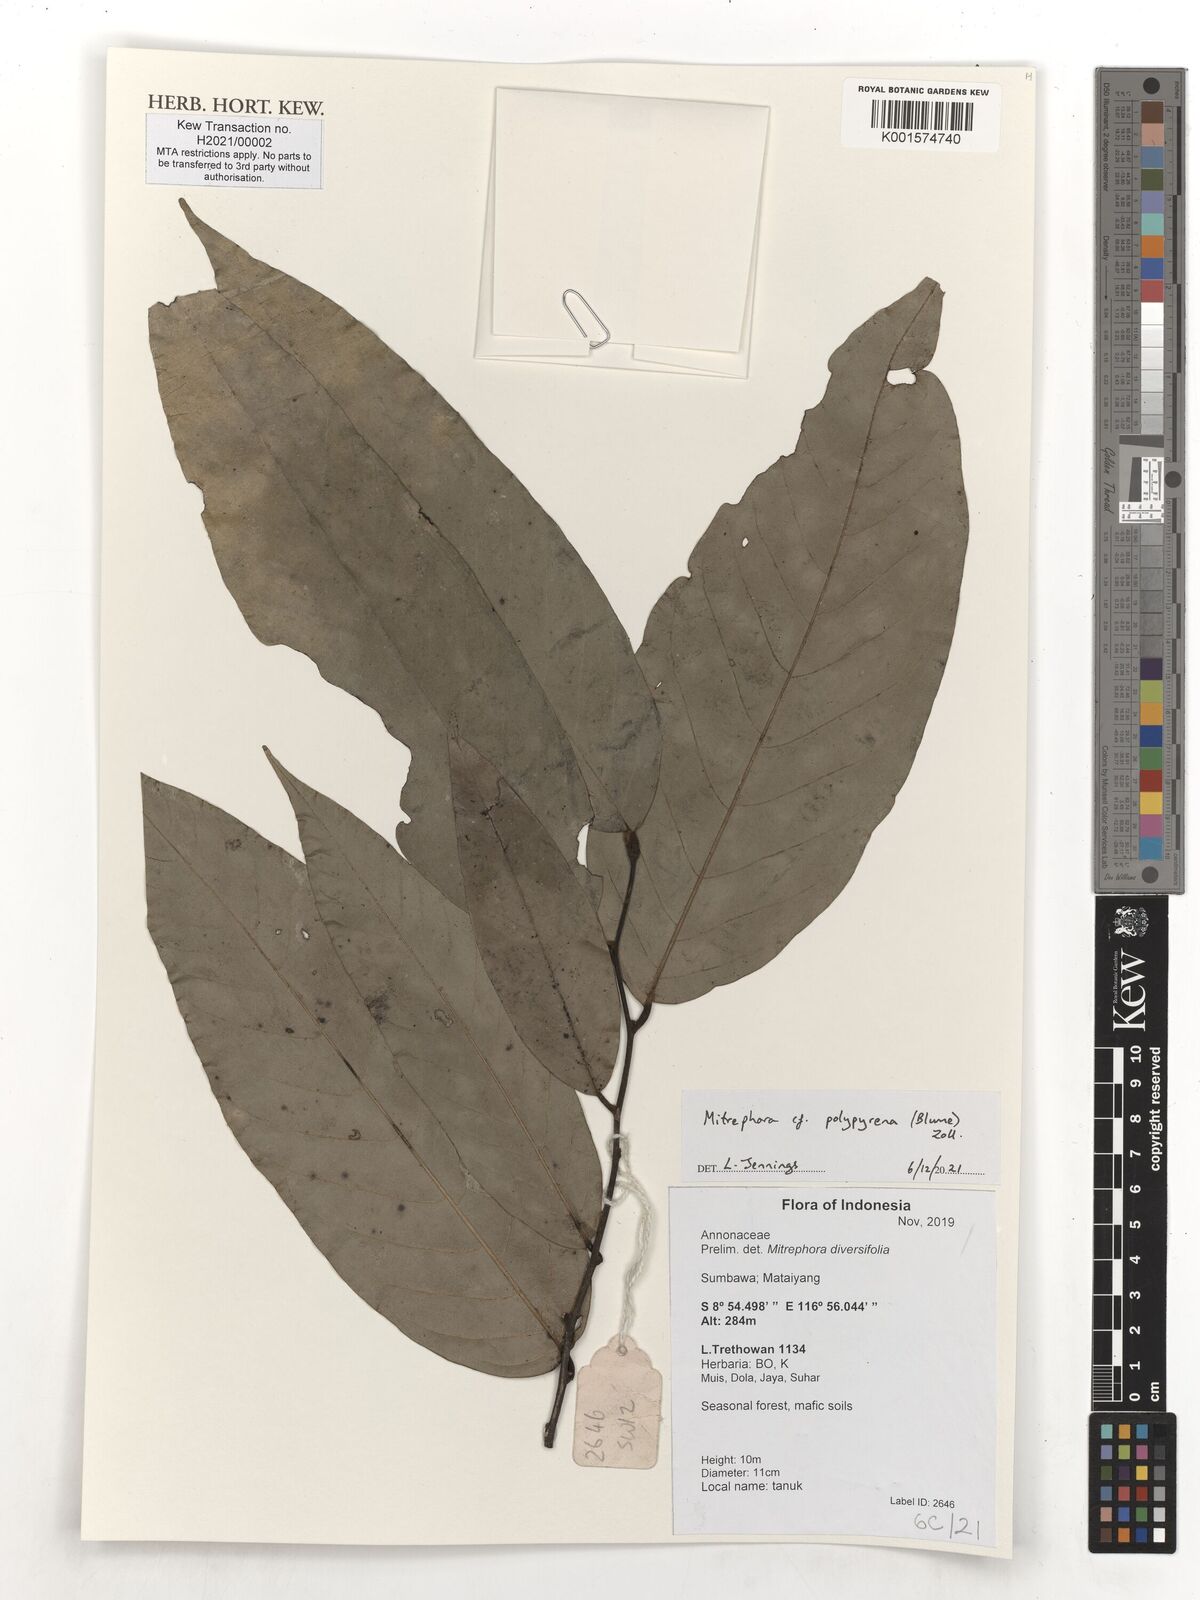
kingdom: Plantae
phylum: Tracheophyta
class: Magnoliopsida
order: Magnoliales
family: Annonaceae
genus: Mitrephora
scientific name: Mitrephora polypyrena
